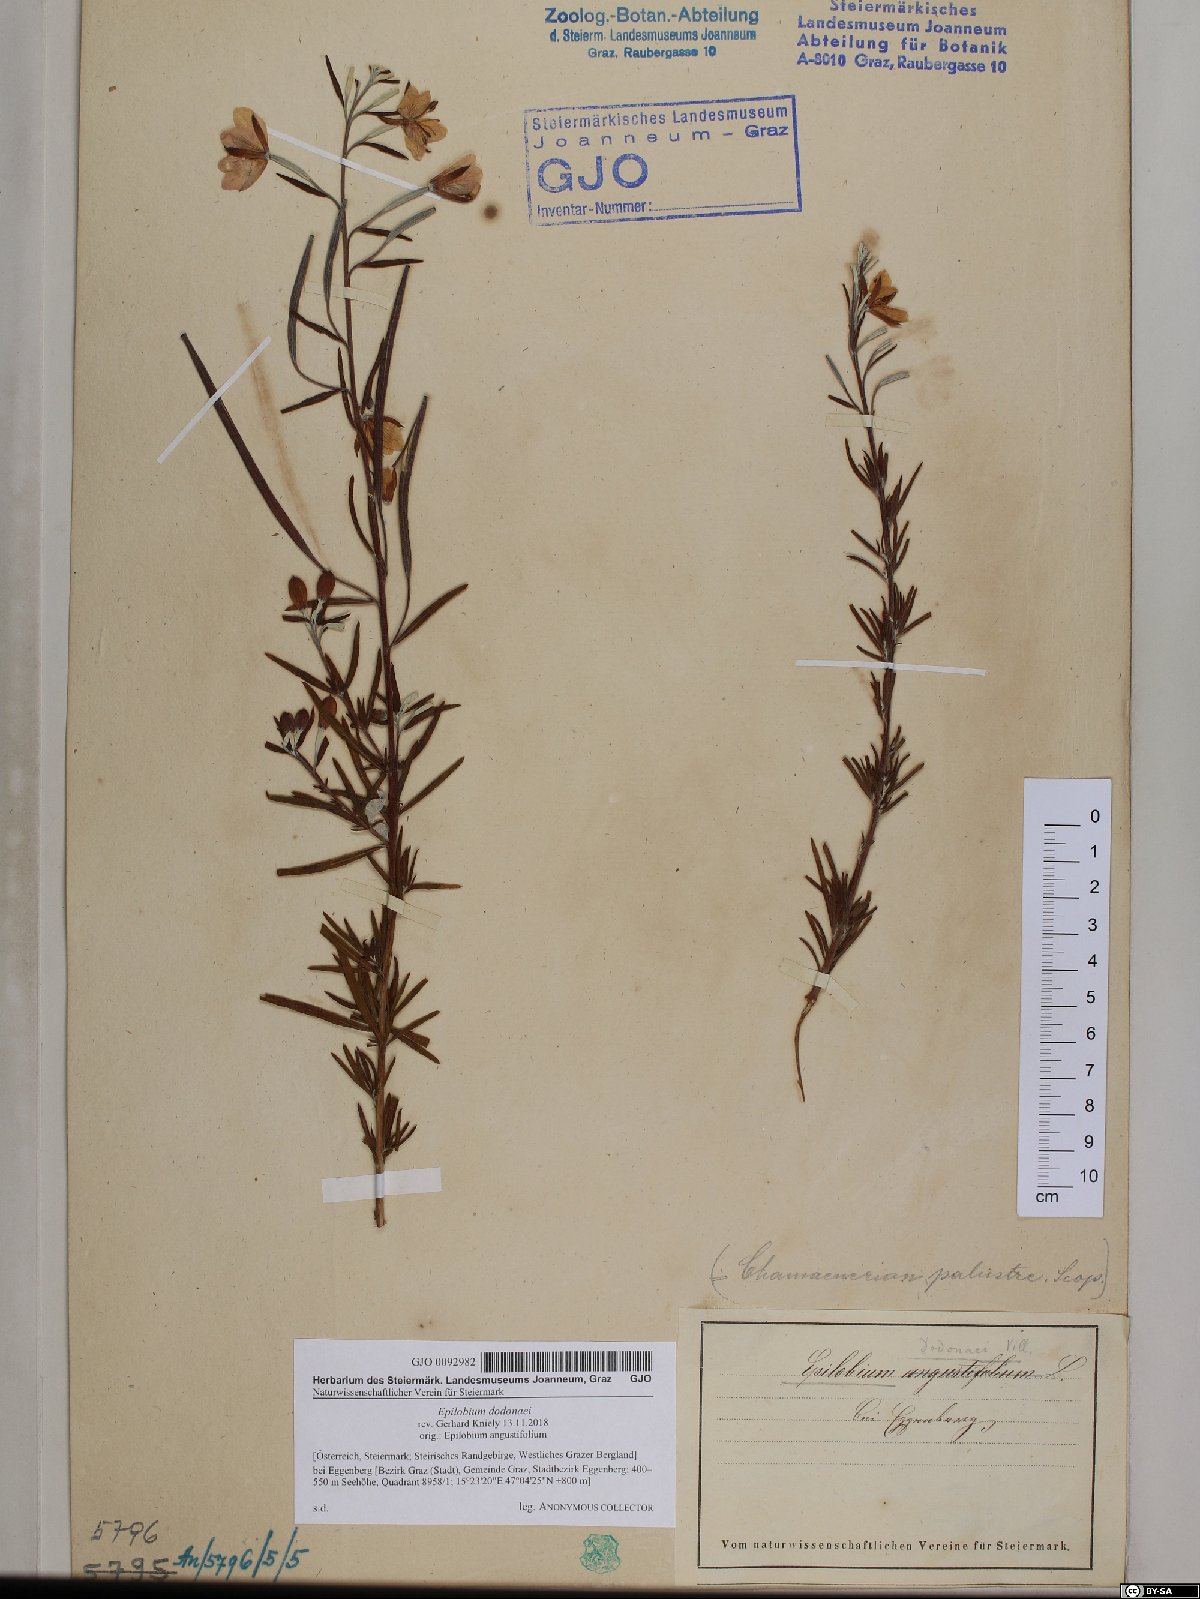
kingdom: Plantae
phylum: Tracheophyta
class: Magnoliopsida
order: Myrtales
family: Onagraceae
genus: Chamaenerion
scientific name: Chamaenerion dodonaei
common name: Rosemary-leaved willowherb
